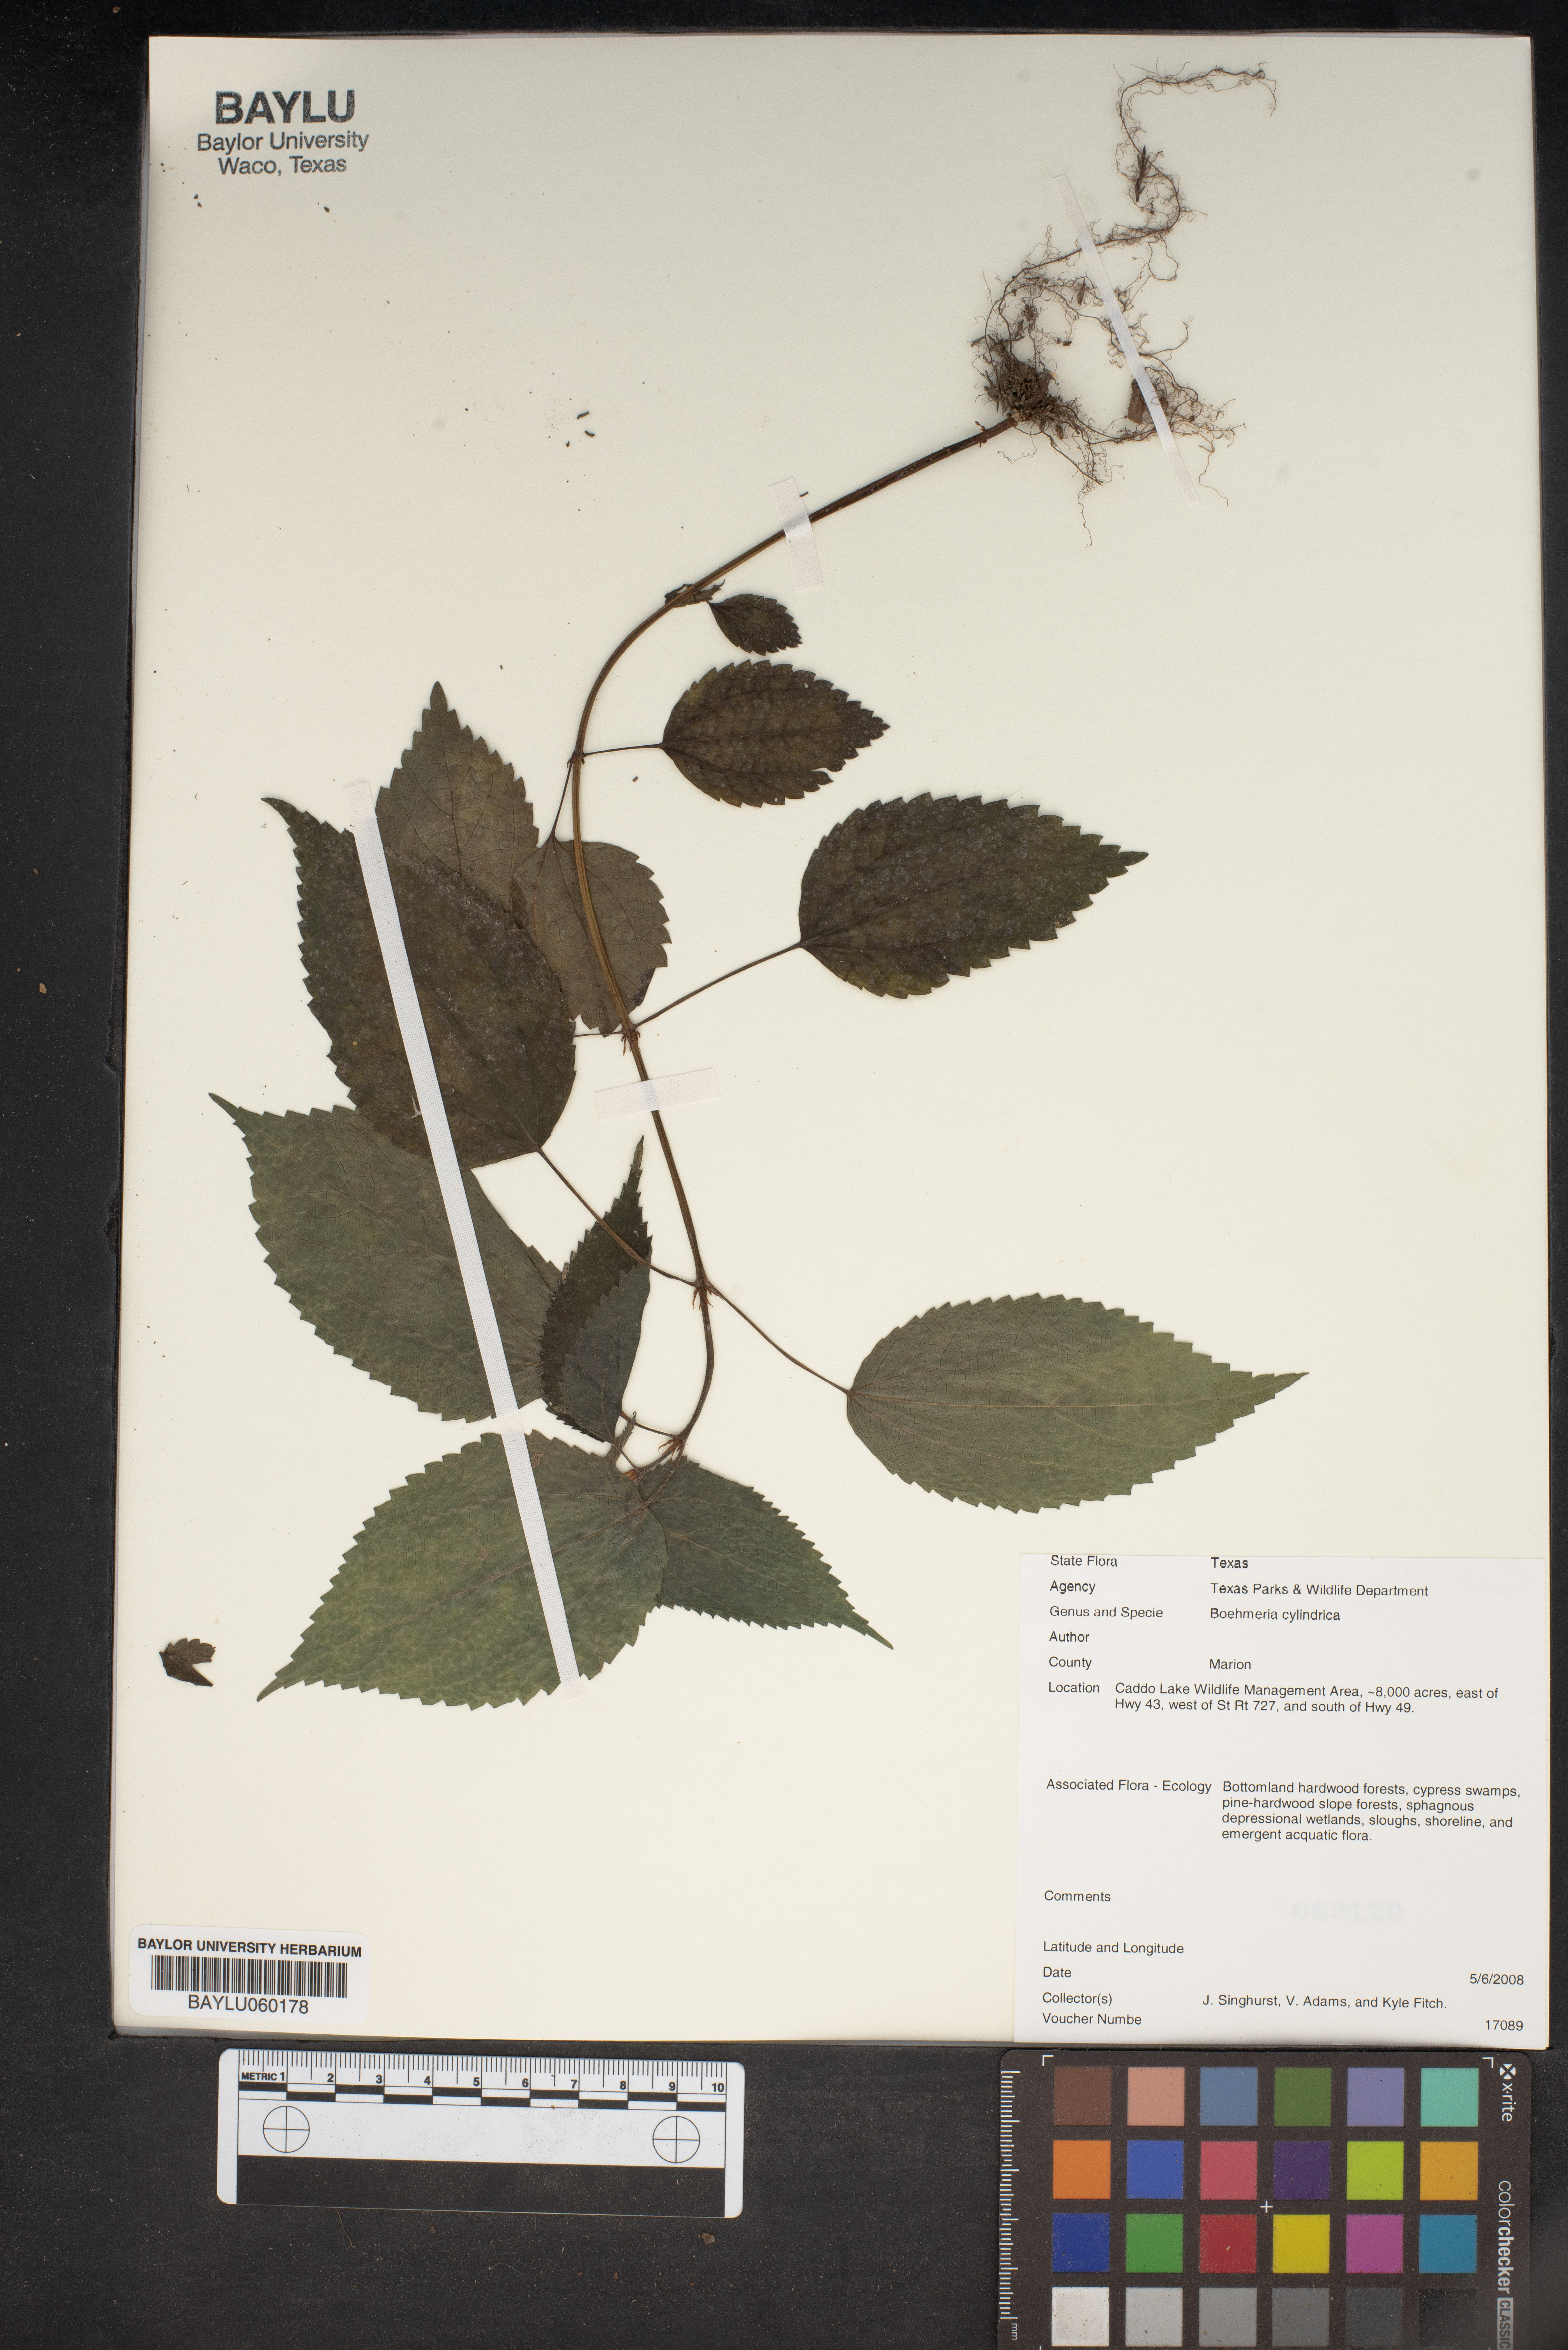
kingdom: Plantae
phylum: Tracheophyta
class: Magnoliopsida
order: Rosales
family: Urticaceae
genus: Boehmeria
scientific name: Boehmeria cylindrica
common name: Bog-hemp
